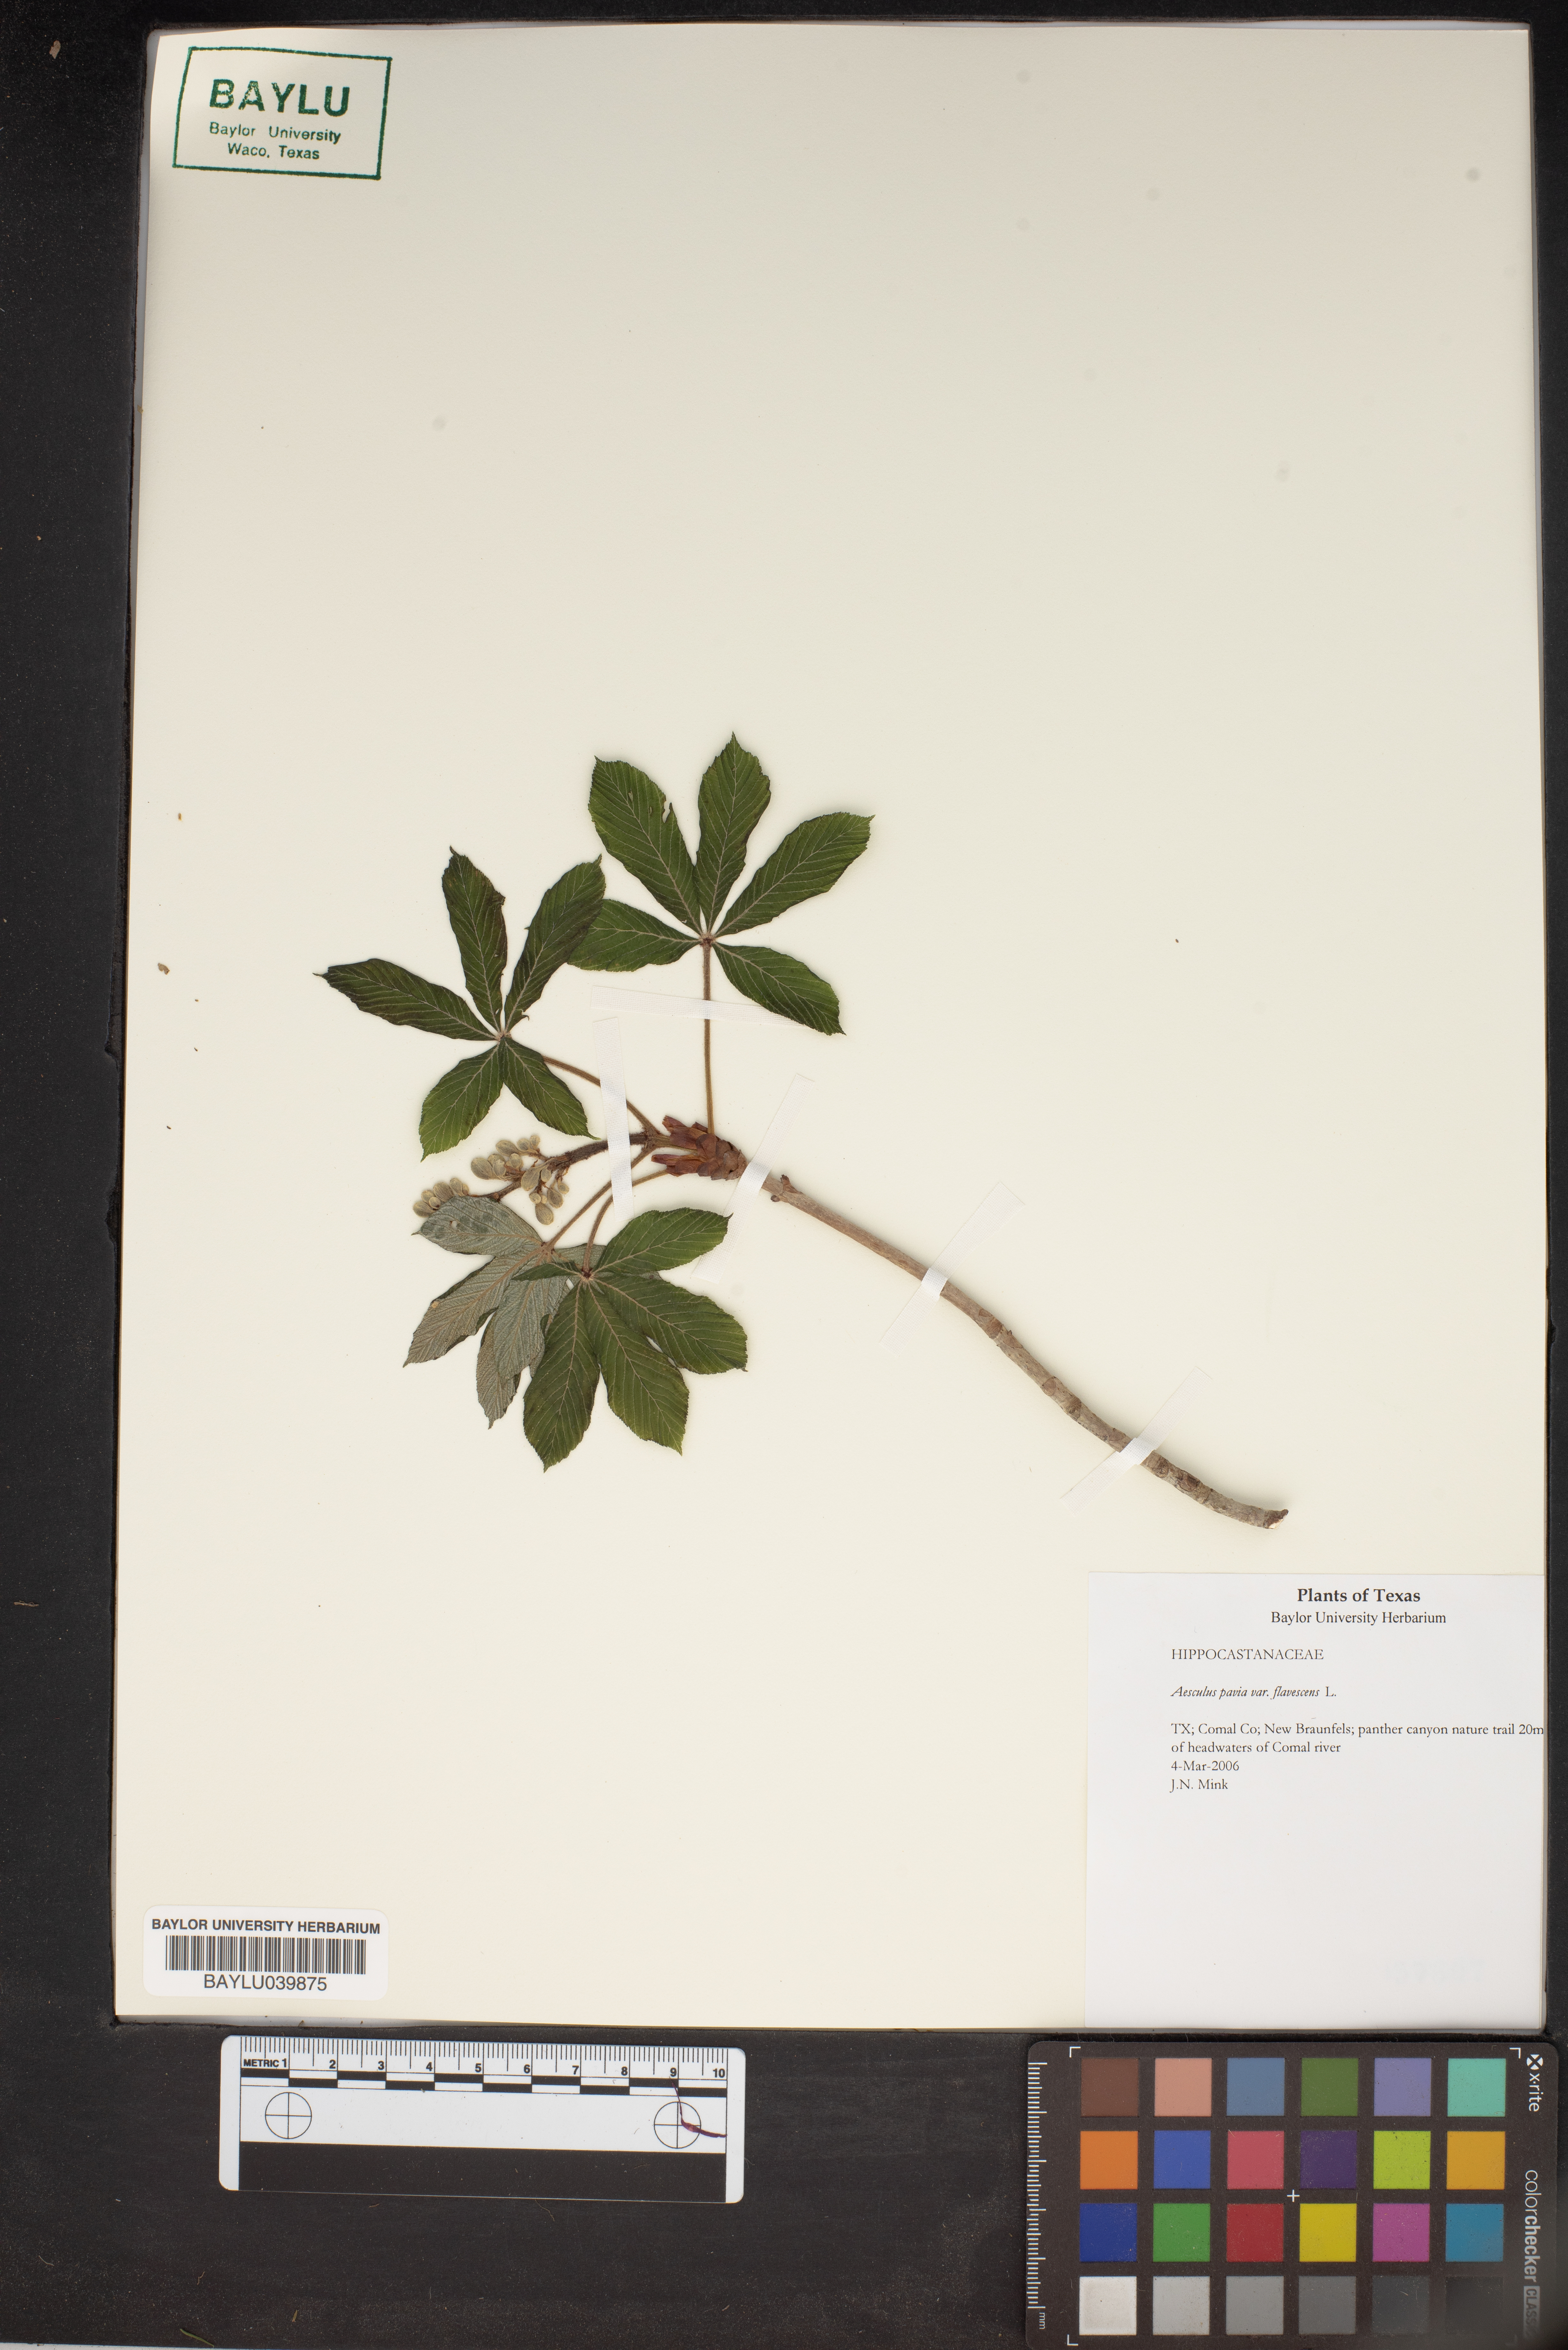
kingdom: Plantae
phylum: Tracheophyta
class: Magnoliopsida
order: Sapindales
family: Sapindaceae
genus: Aesculus
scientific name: Aesculus pavia
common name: Red buckeye
